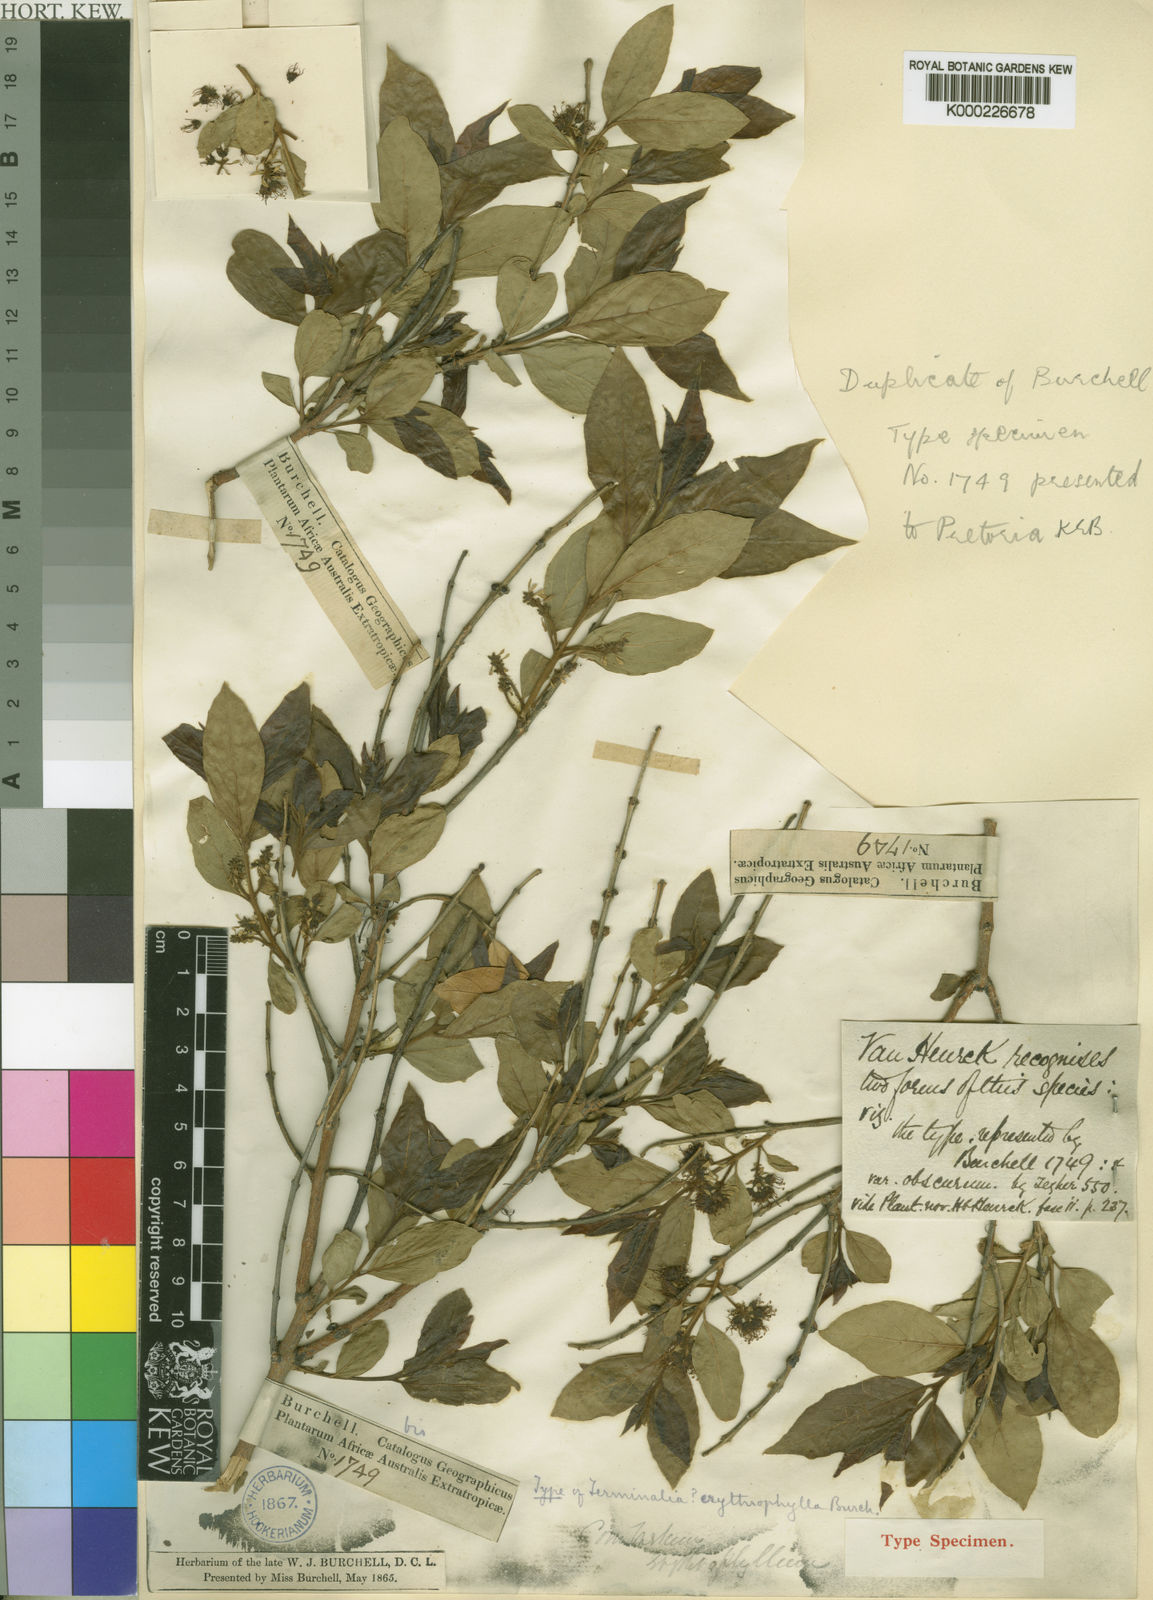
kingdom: Plantae
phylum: Tracheophyta
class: Magnoliopsida
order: Myrtales
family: Combretaceae
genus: Combretum
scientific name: Combretum erythrophyllum
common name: Bush-willow
